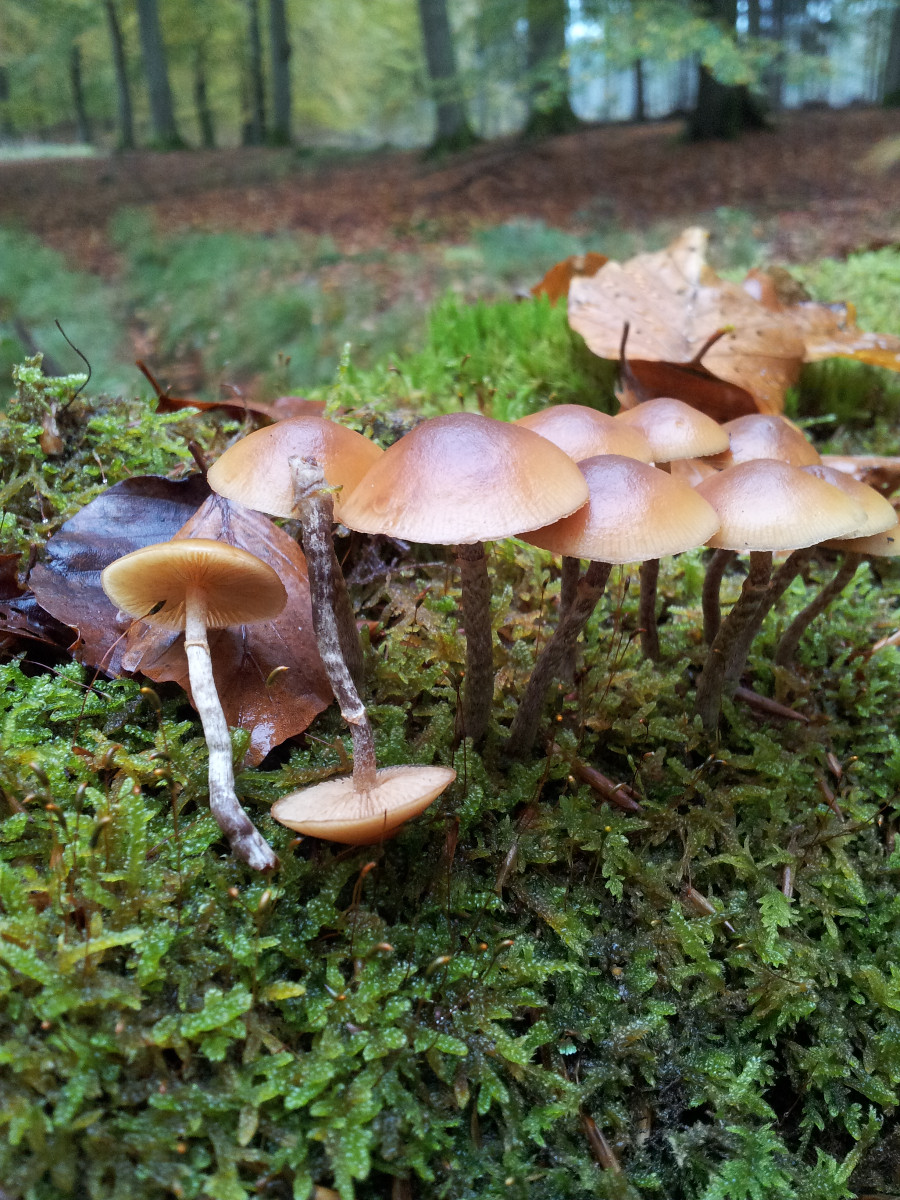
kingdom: Fungi
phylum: Basidiomycota
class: Agaricomycetes
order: Agaricales
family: Hymenogastraceae
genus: Galerina
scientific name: Galerina marginata
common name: randbæltet hjelmhat
